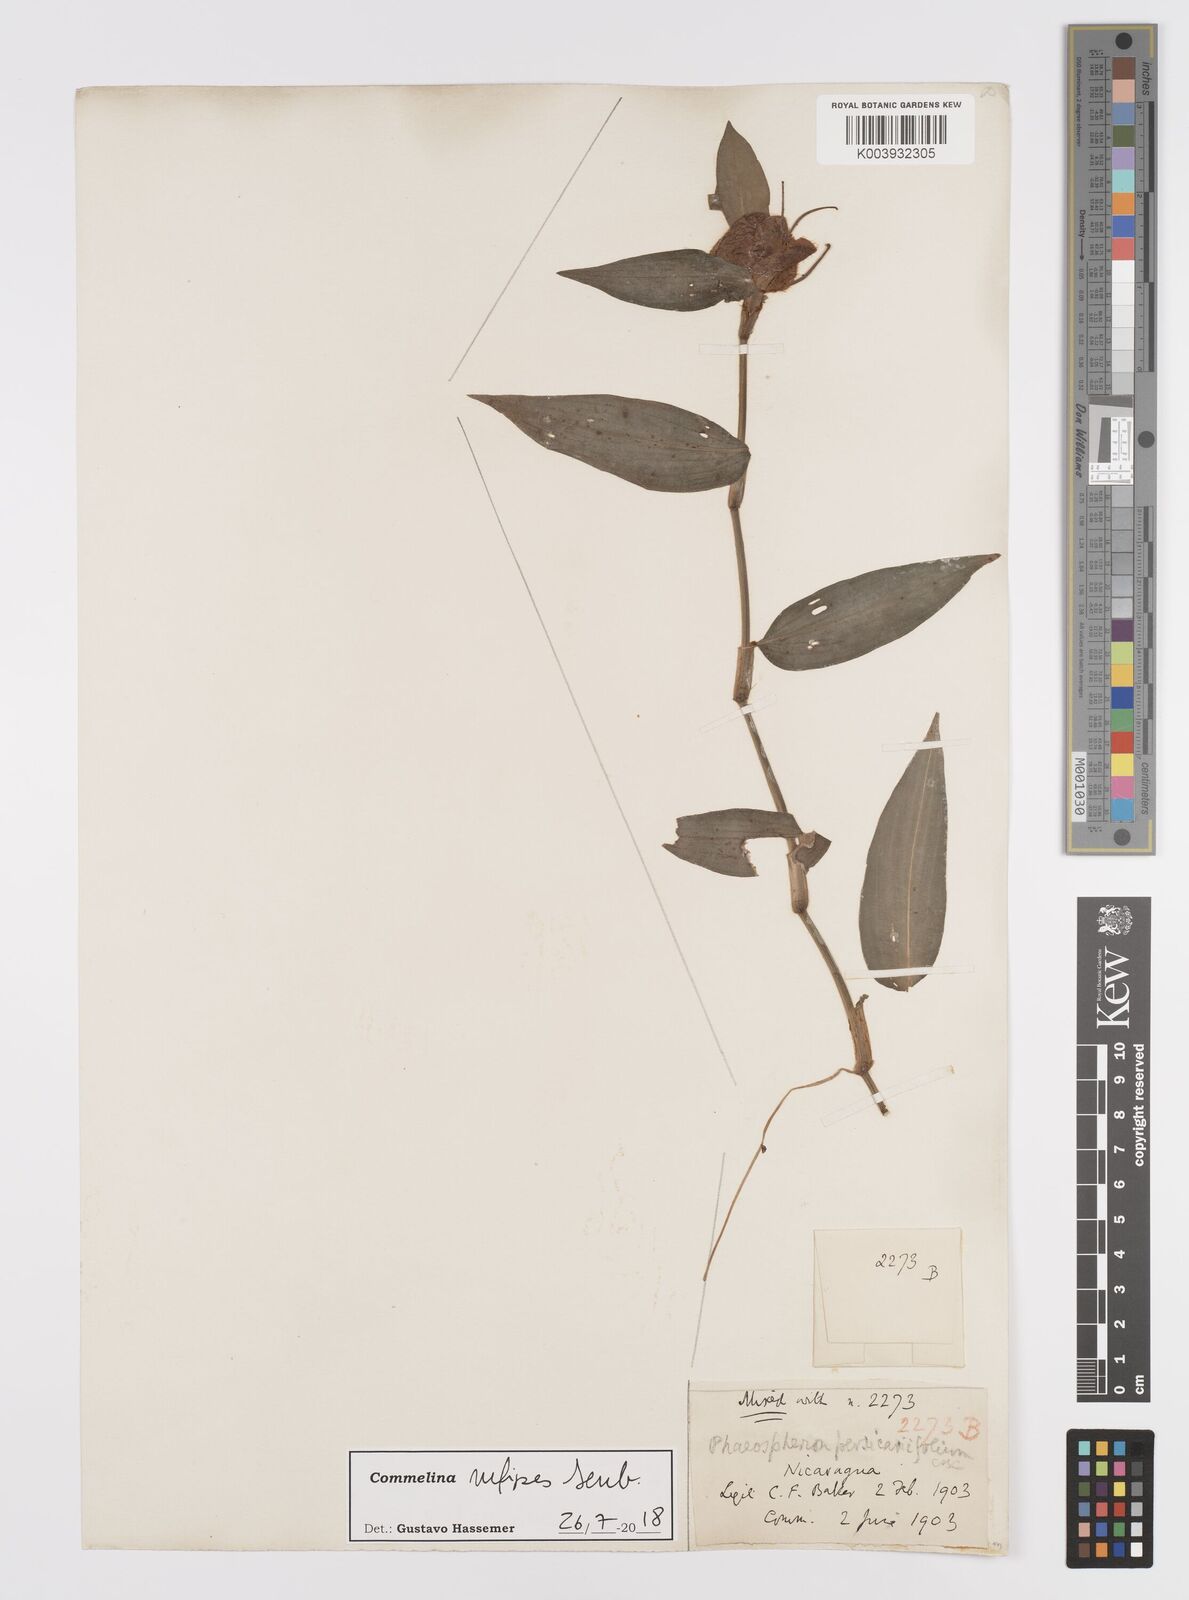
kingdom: Plantae
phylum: Tracheophyta
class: Liliopsida
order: Commelinales
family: Commelinaceae
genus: Commelina
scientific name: Commelina rufipes
